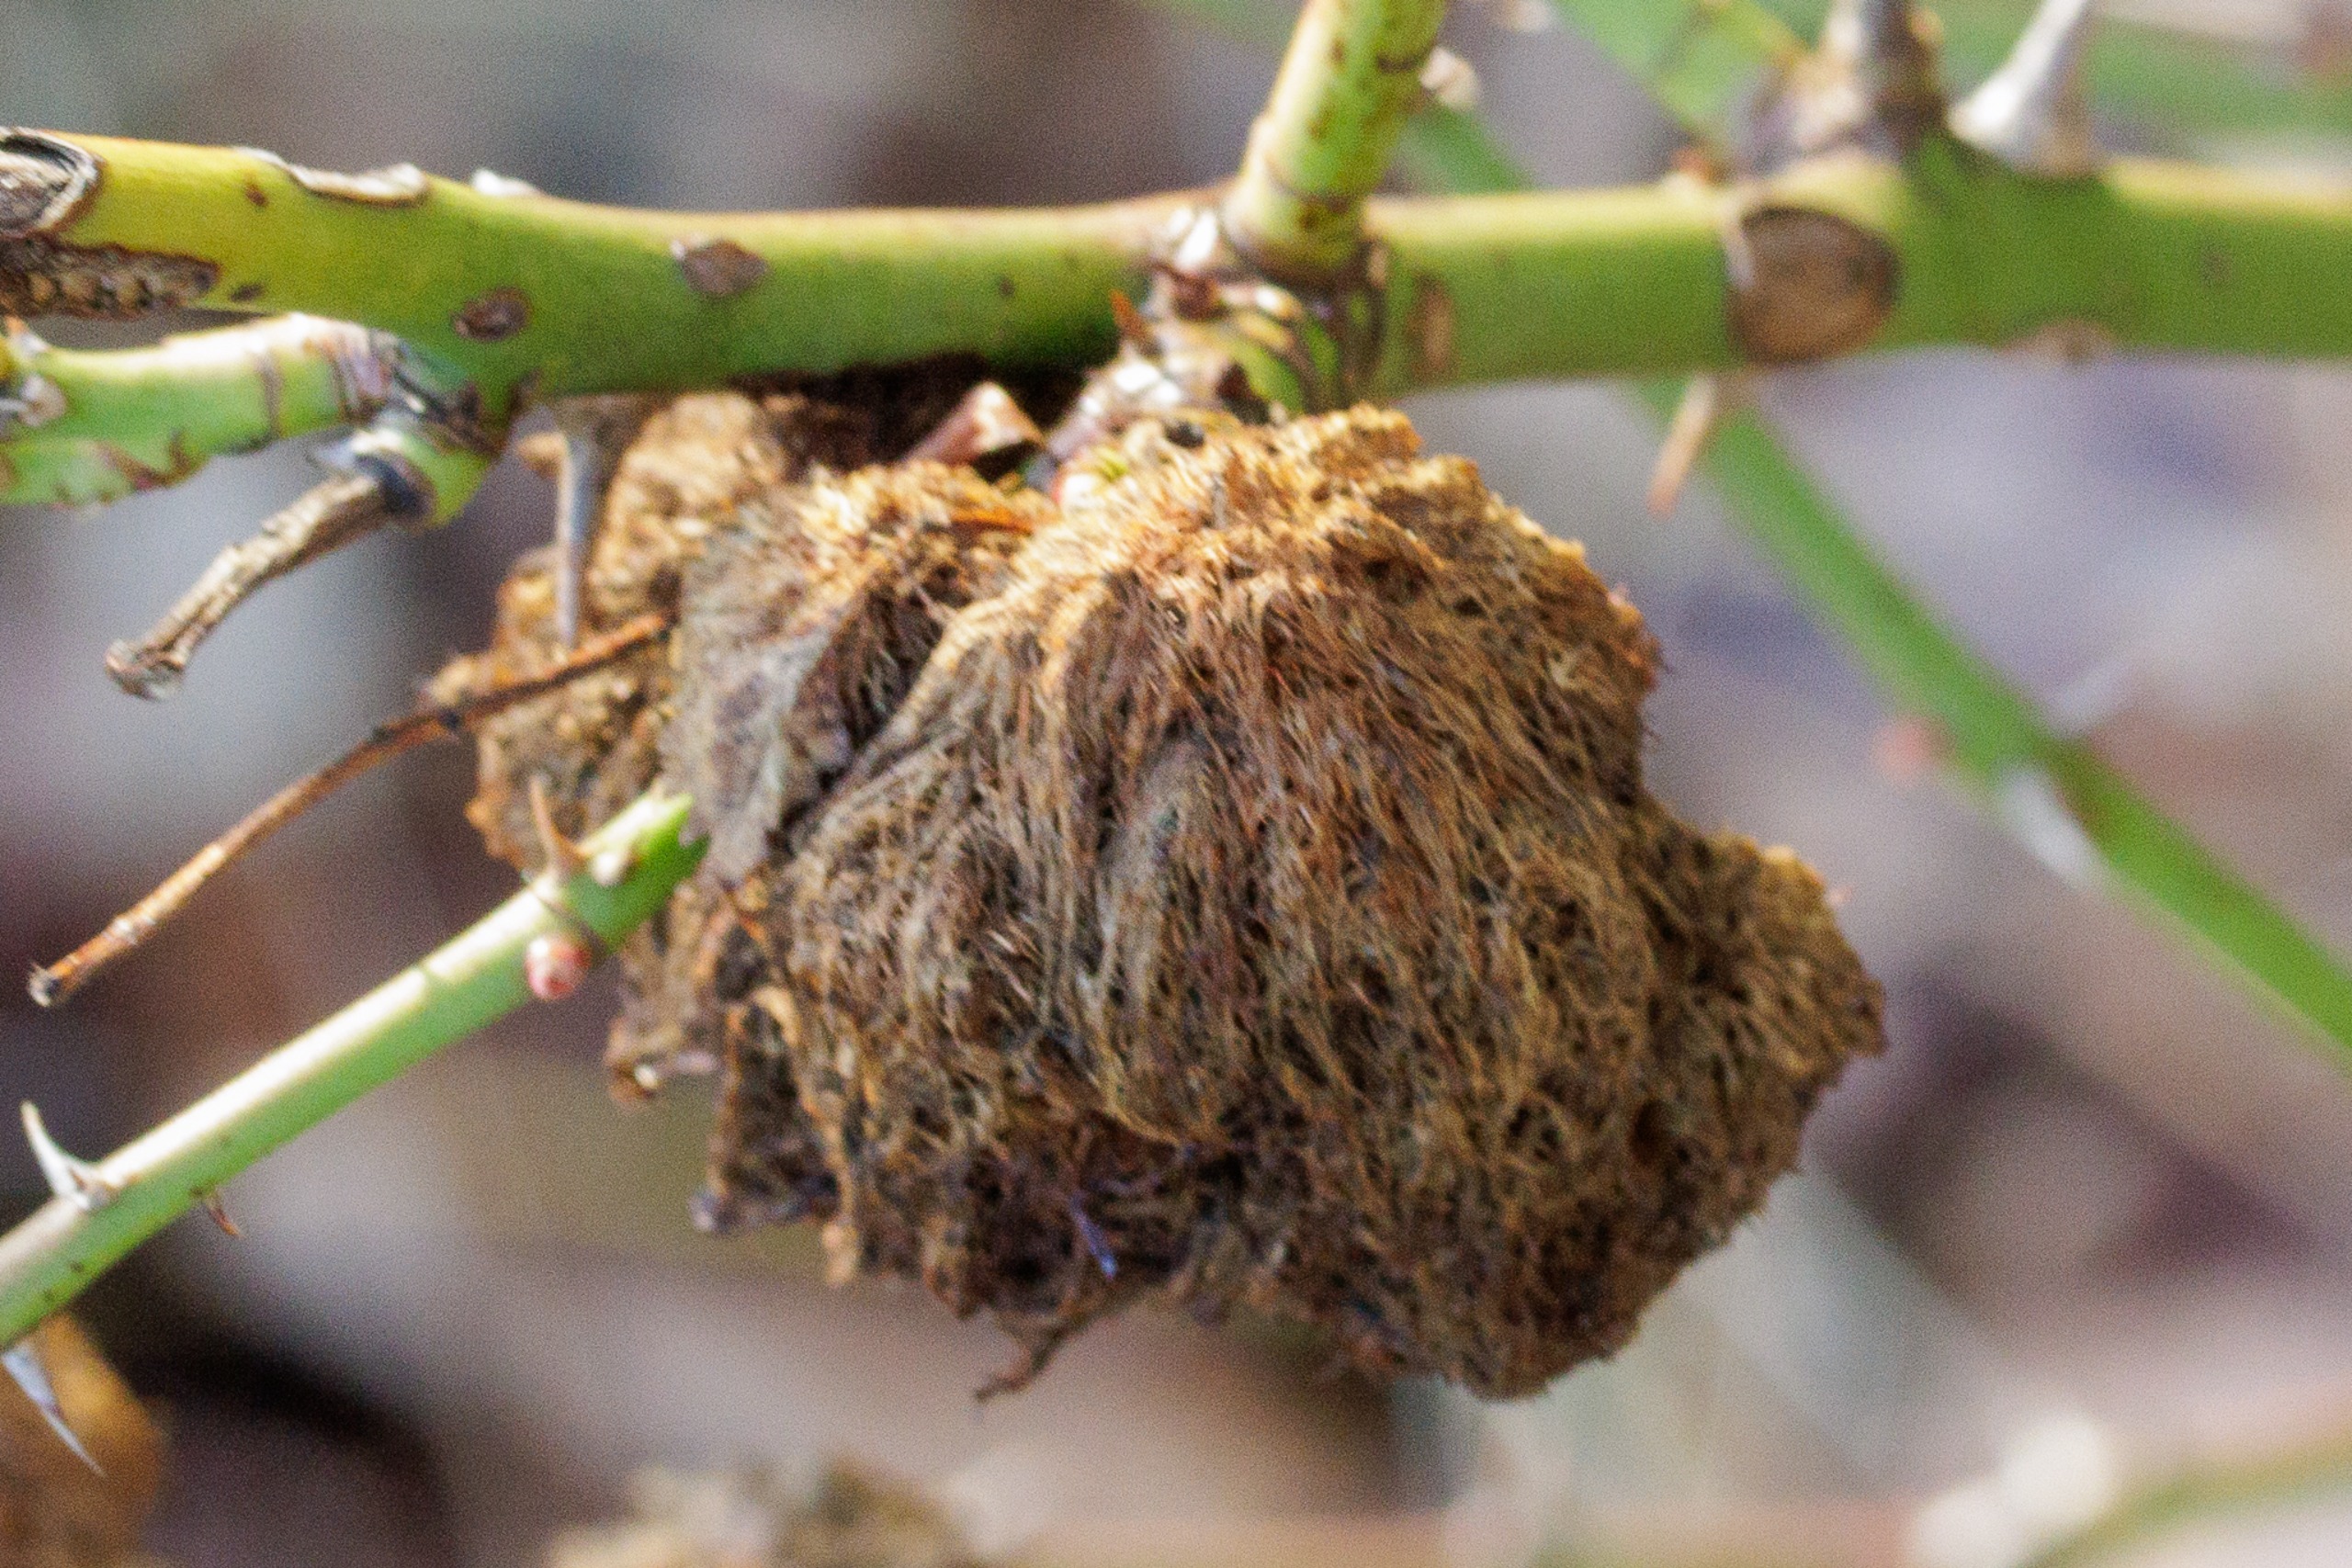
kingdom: Animalia
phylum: Arthropoda
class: Insecta
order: Hymenoptera
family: Cynipidae
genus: Diplolepis
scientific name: Diplolepis rosae
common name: Bedeguargalhveps
